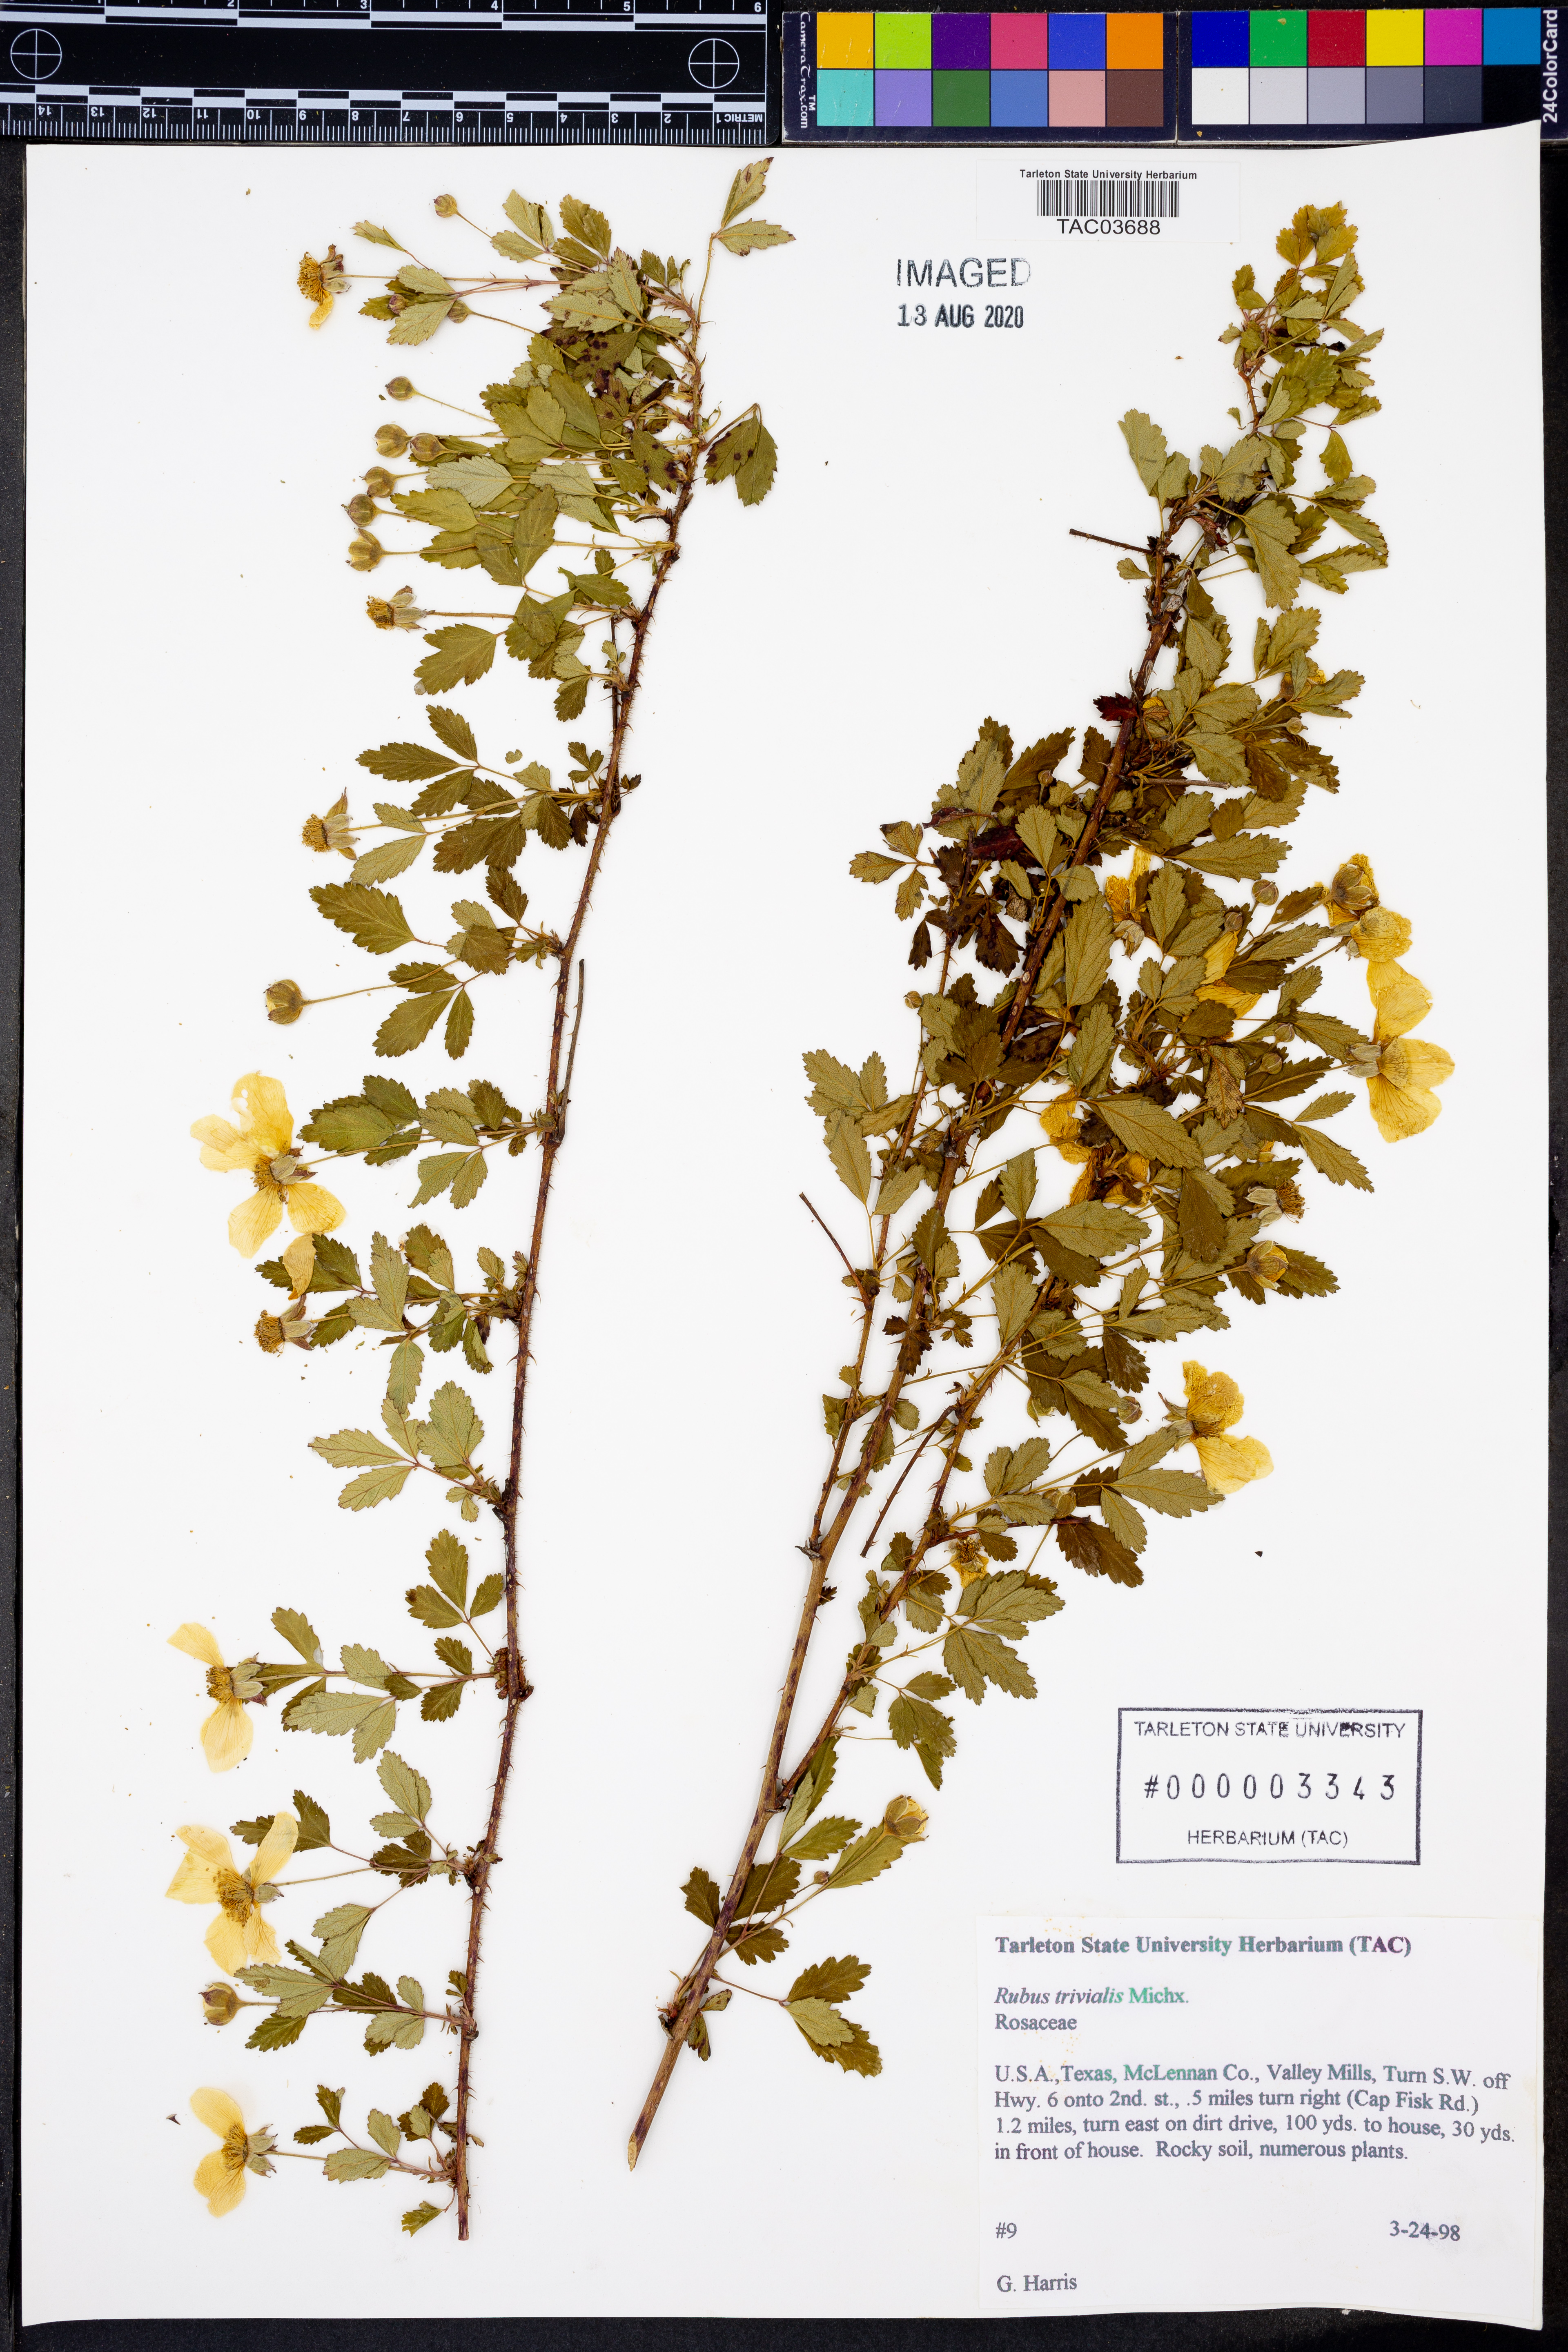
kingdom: Plantae
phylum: Tracheophyta
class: Magnoliopsida
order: Rosales
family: Rosaceae
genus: Rubus
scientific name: Rubus trivialis
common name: Southern dewberry
